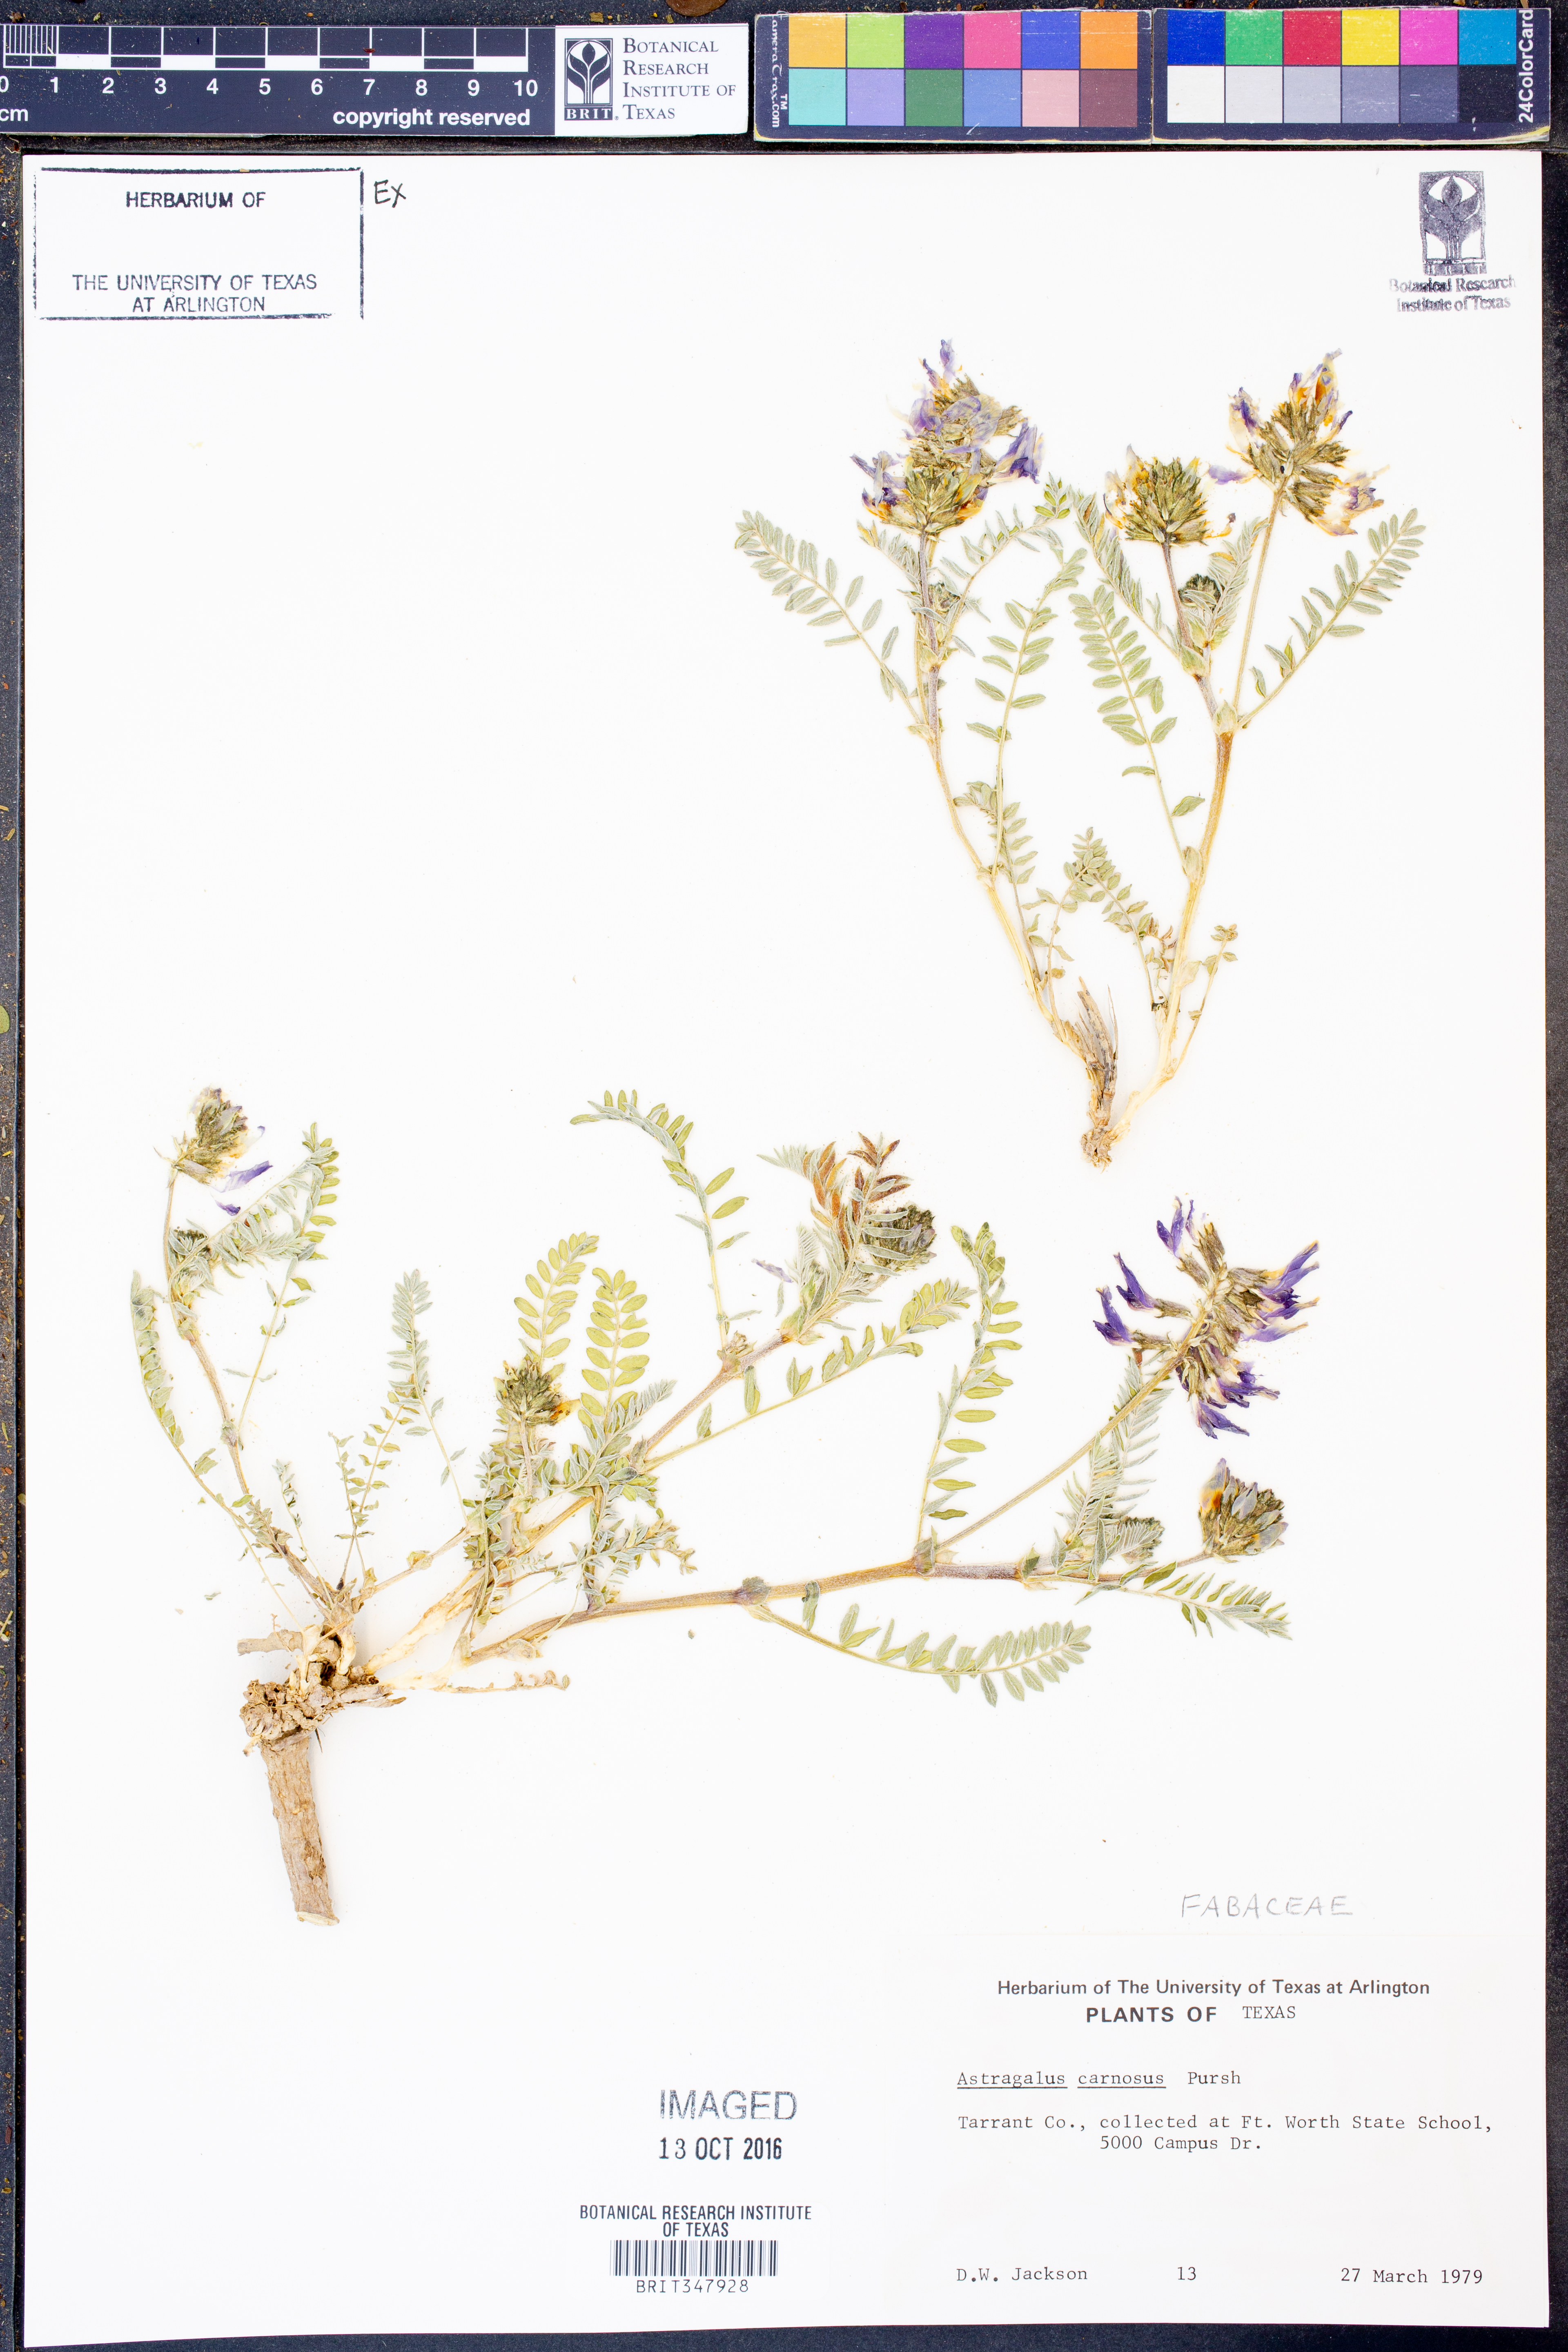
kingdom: Plantae
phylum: Tracheophyta
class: Magnoliopsida
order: Fabales
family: Fabaceae
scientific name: Fabaceae
